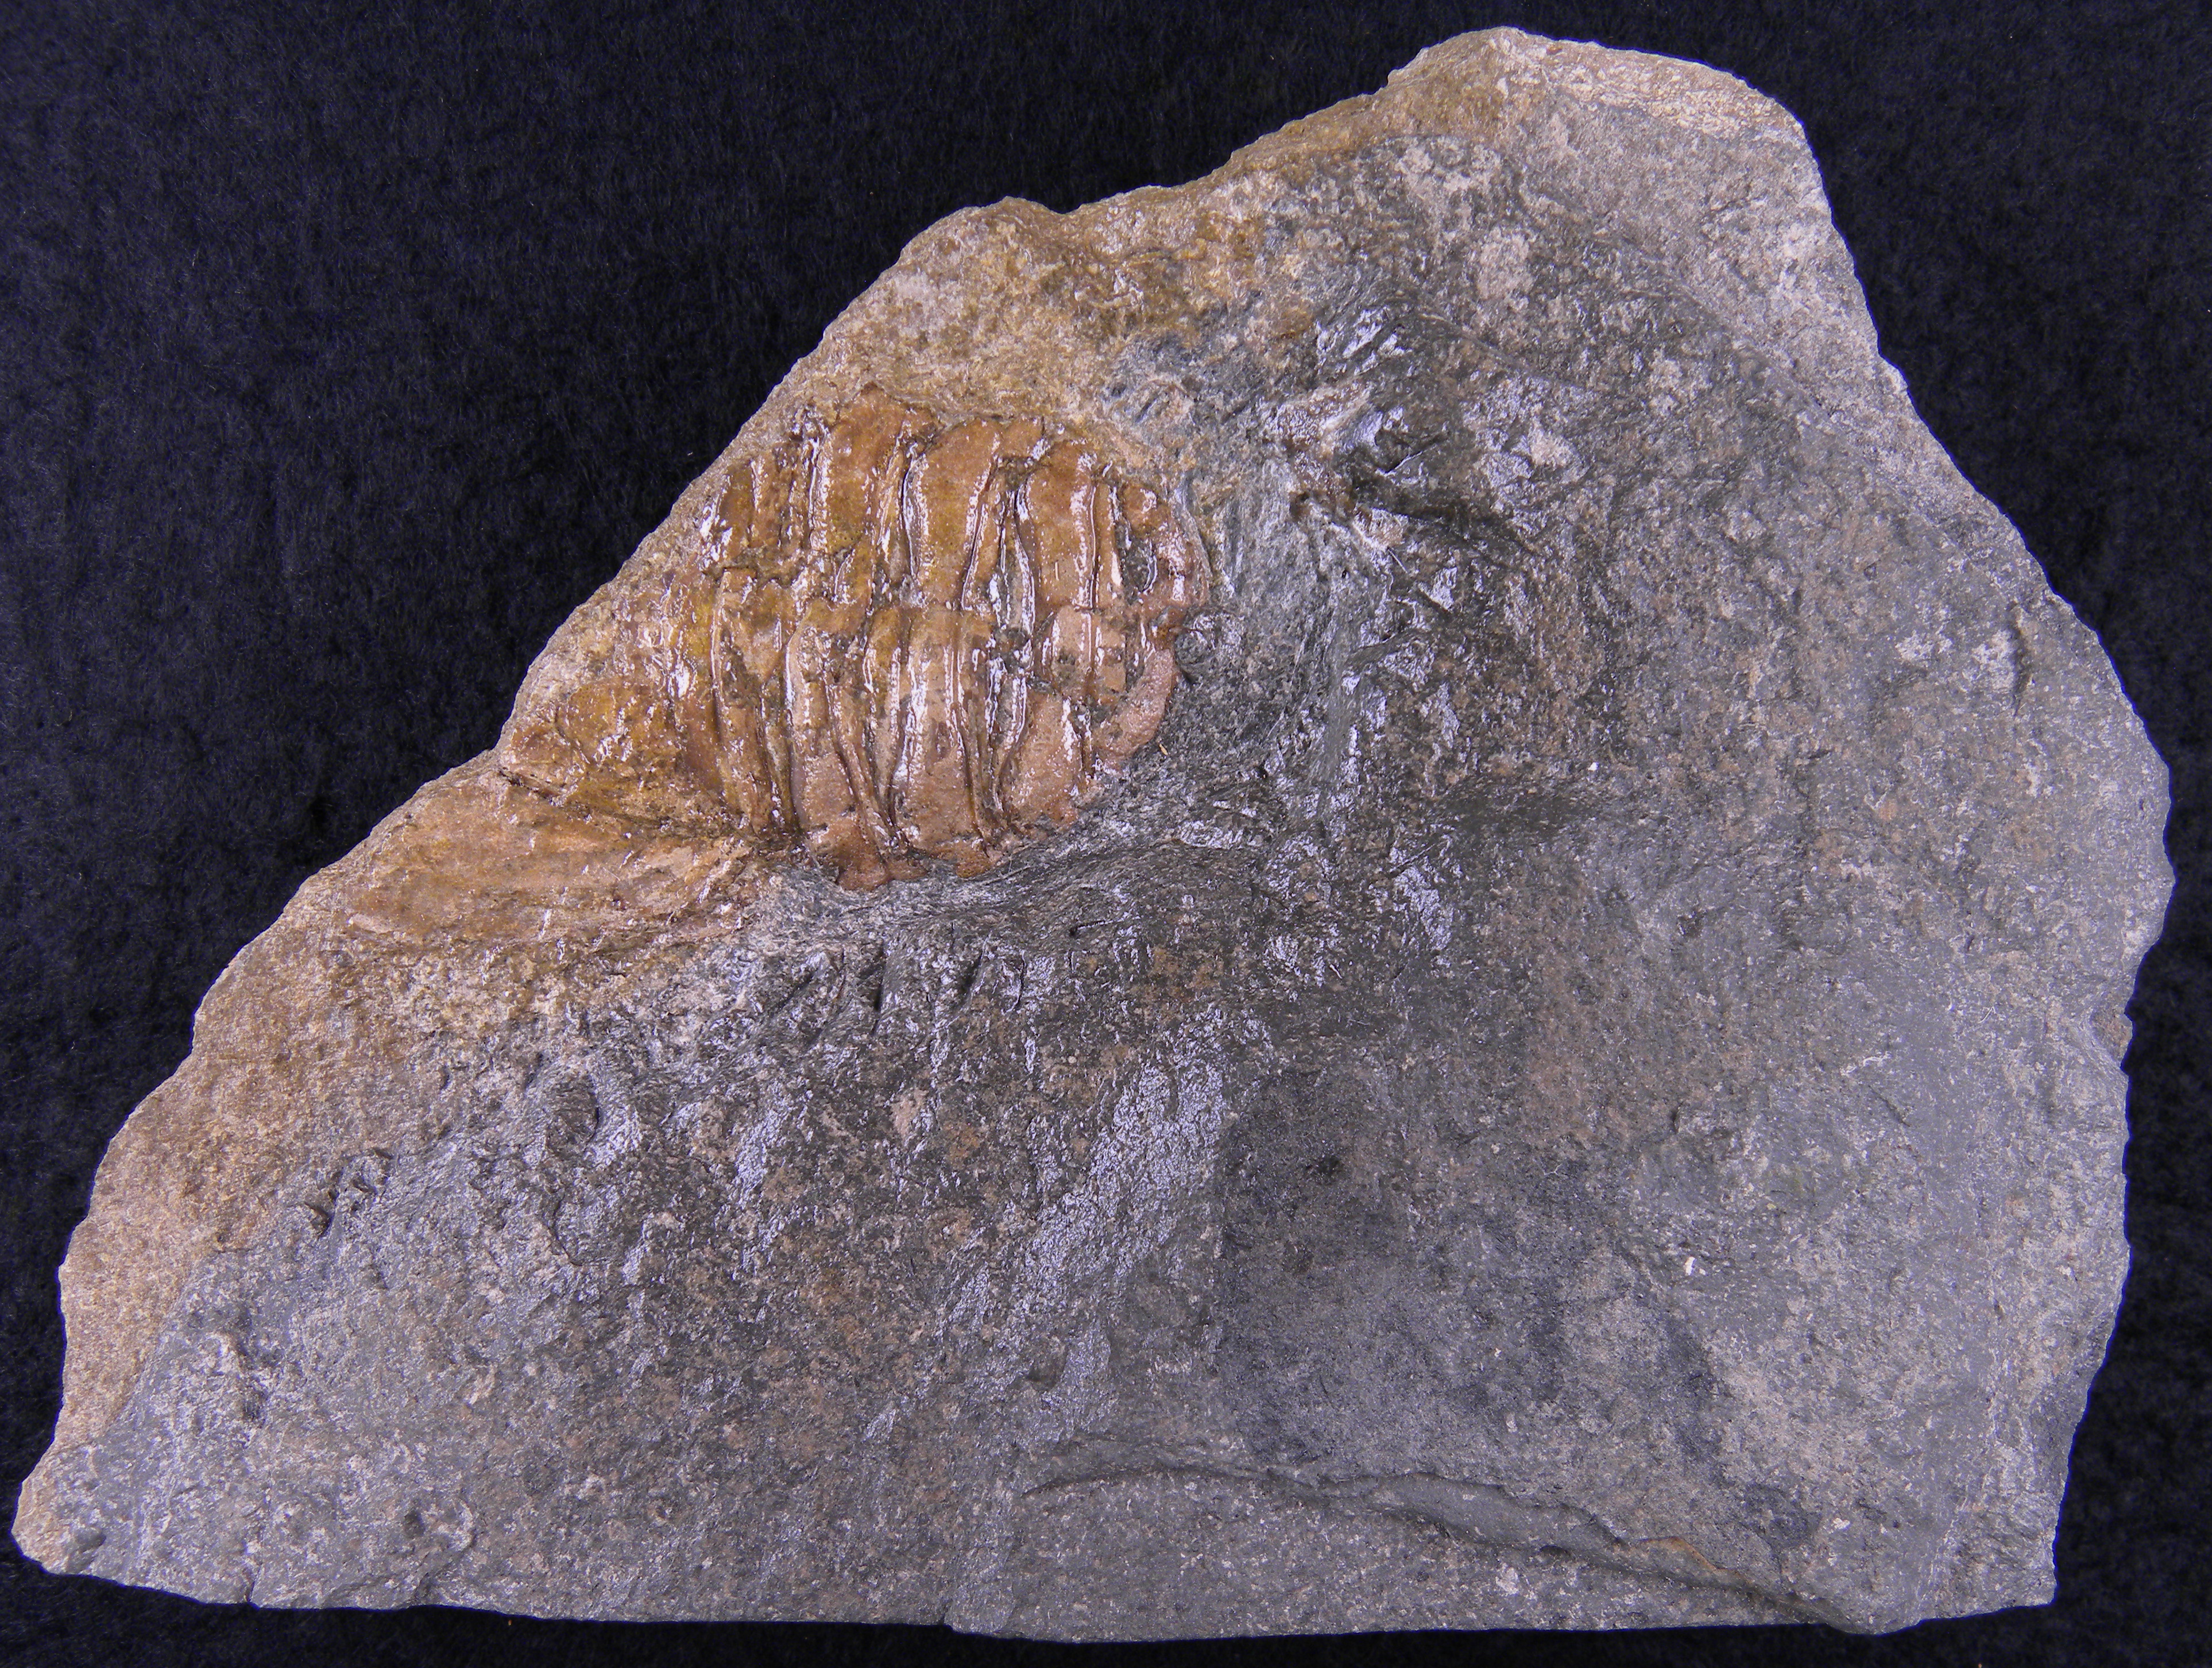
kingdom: Animalia
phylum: Arthropoda
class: Malacostraca
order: Decapoda
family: Coleiidae
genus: Proeryon
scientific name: Proeryon
